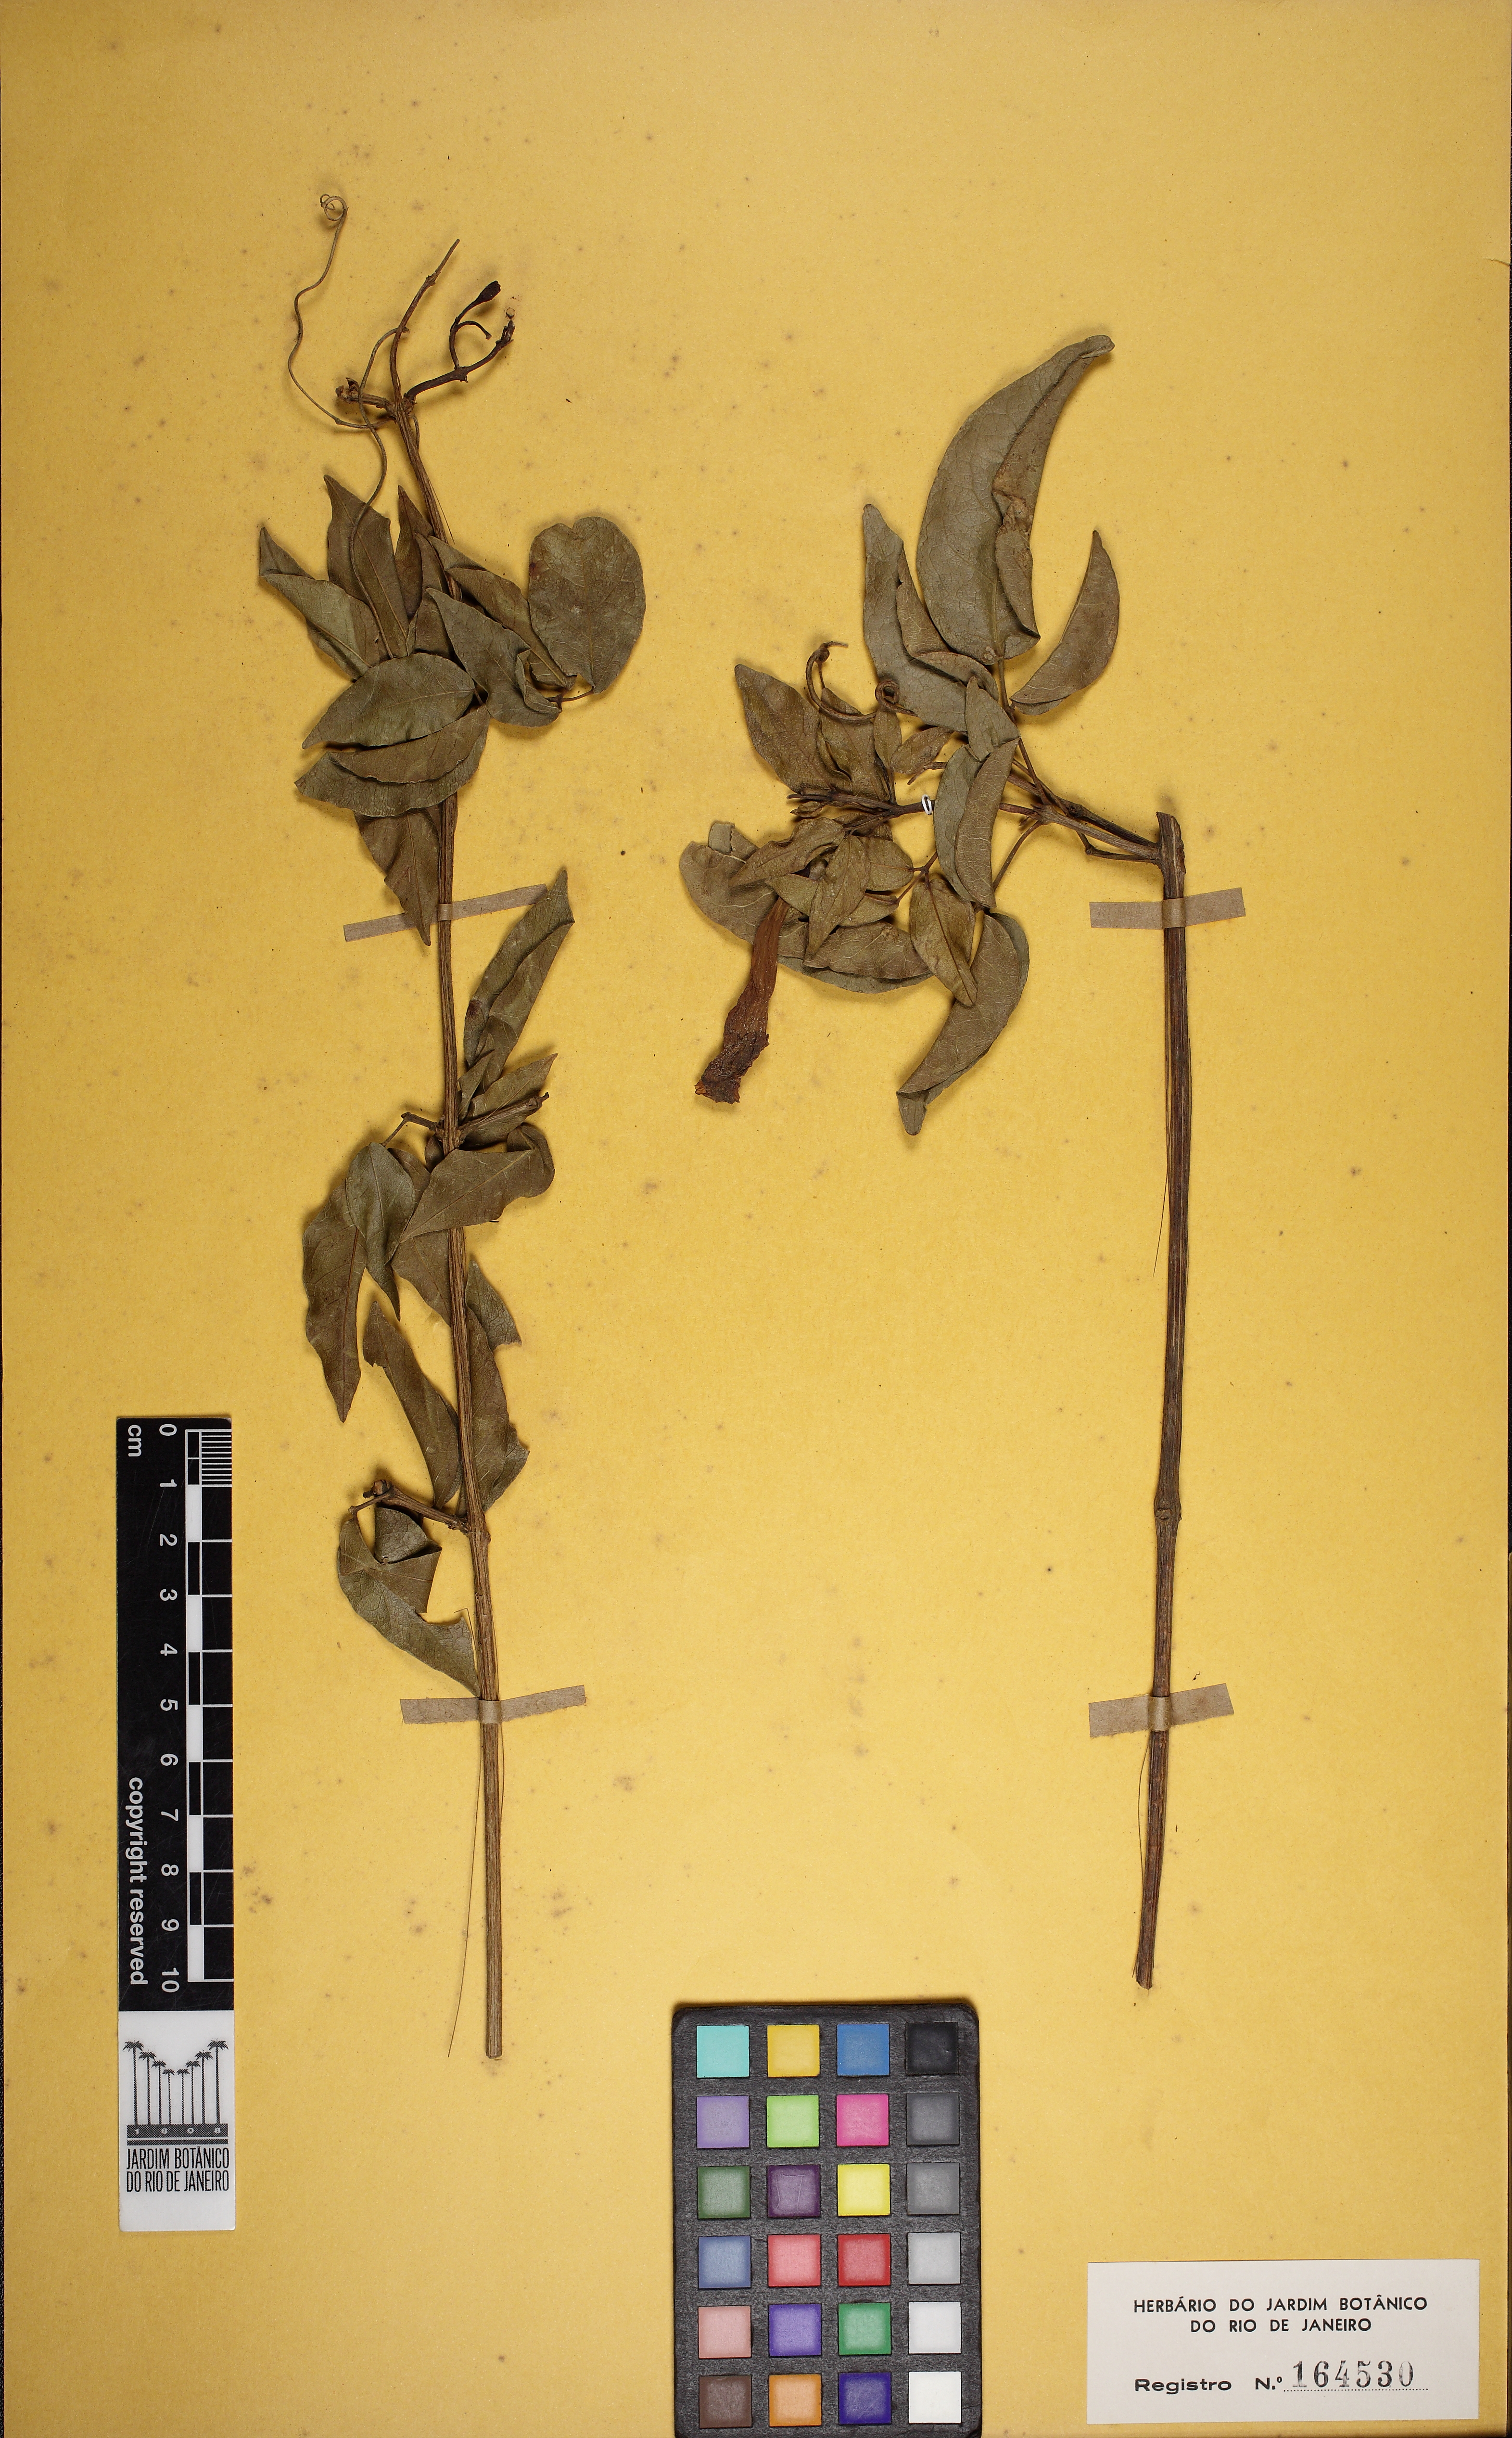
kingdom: Plantae
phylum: Tracheophyta
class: Magnoliopsida
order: Lamiales
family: Bignoniaceae
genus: Adenocalymma
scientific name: Adenocalymma imperatoris-maximilianii
